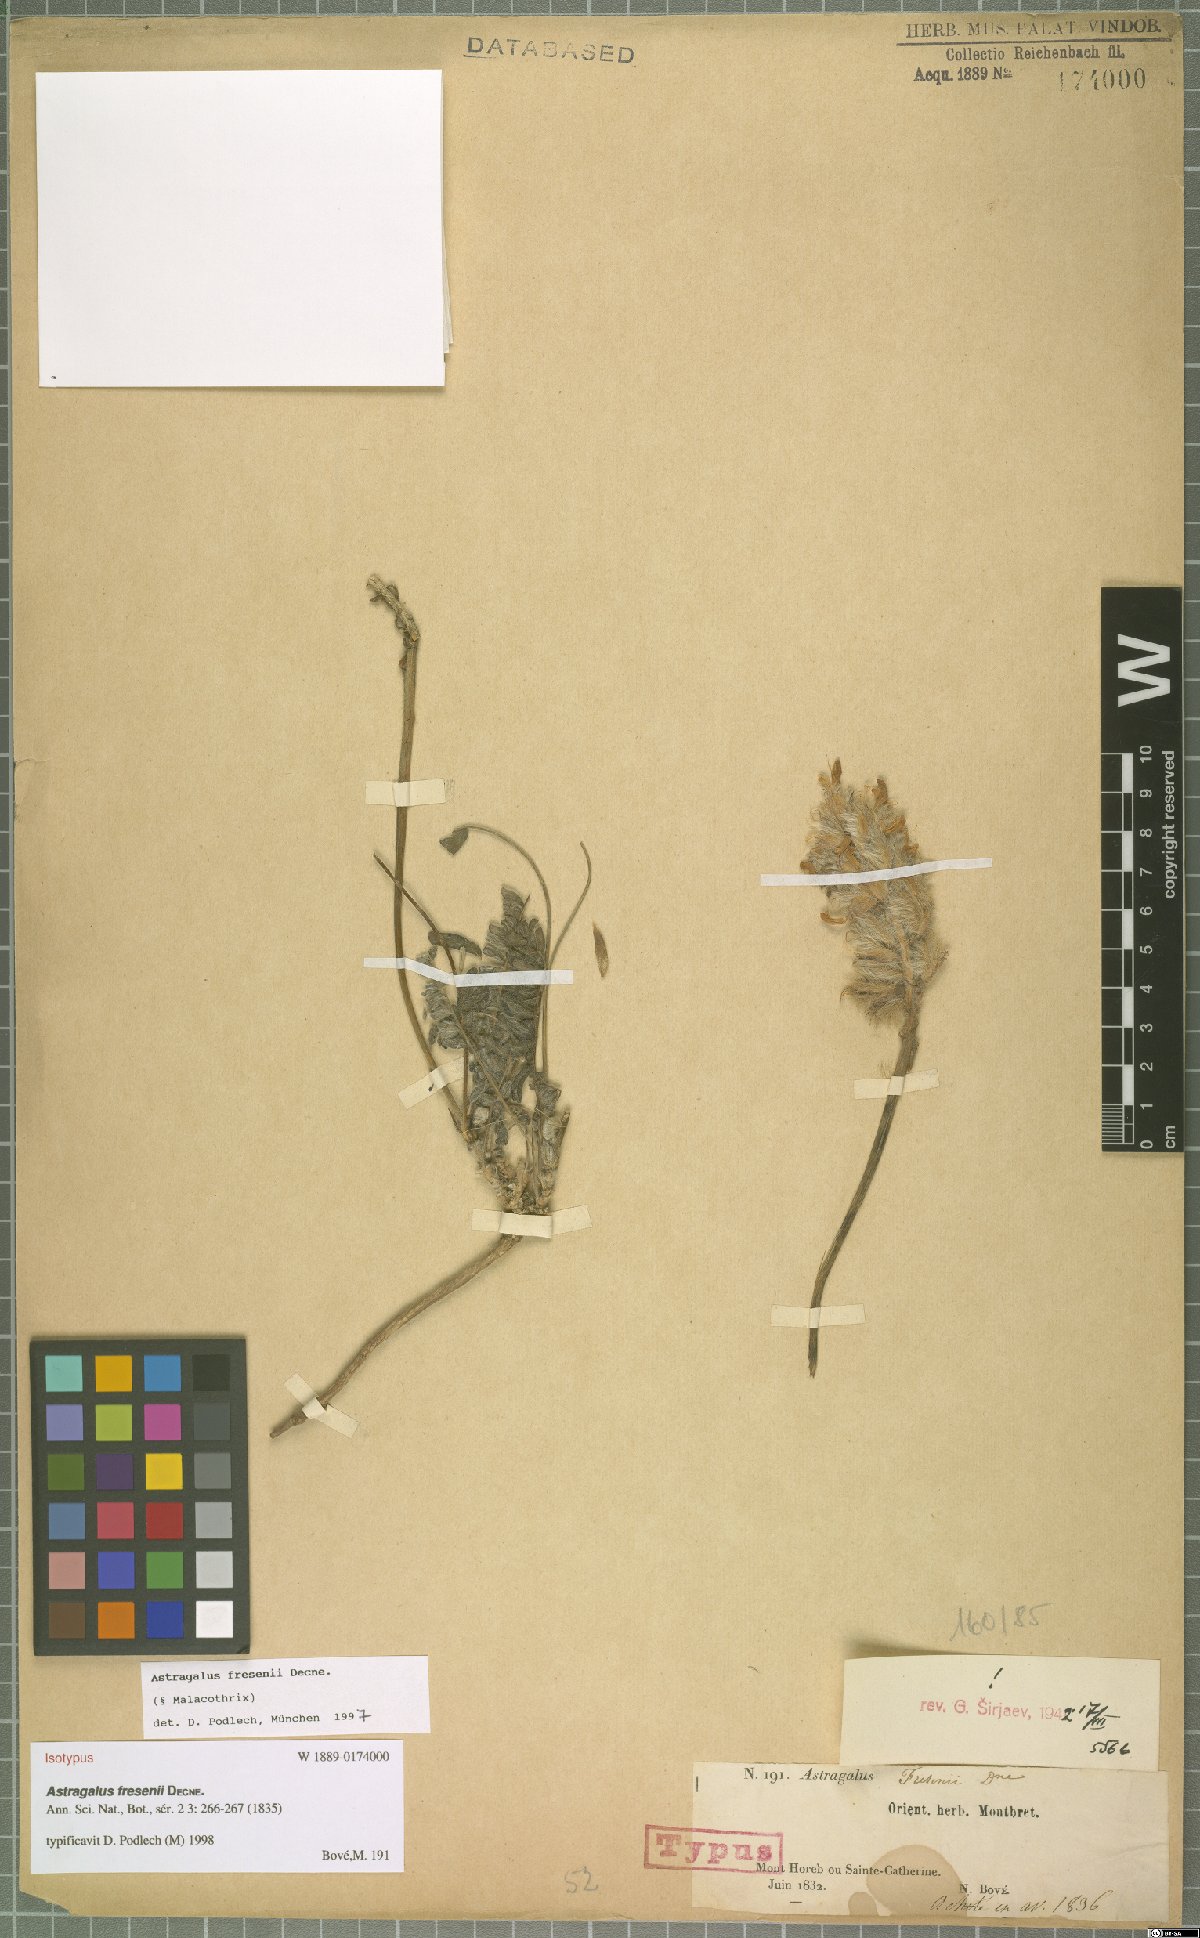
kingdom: Plantae
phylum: Tracheophyta
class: Magnoliopsida
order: Fabales
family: Fabaceae
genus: Astragalus
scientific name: Astragalus fresenii
